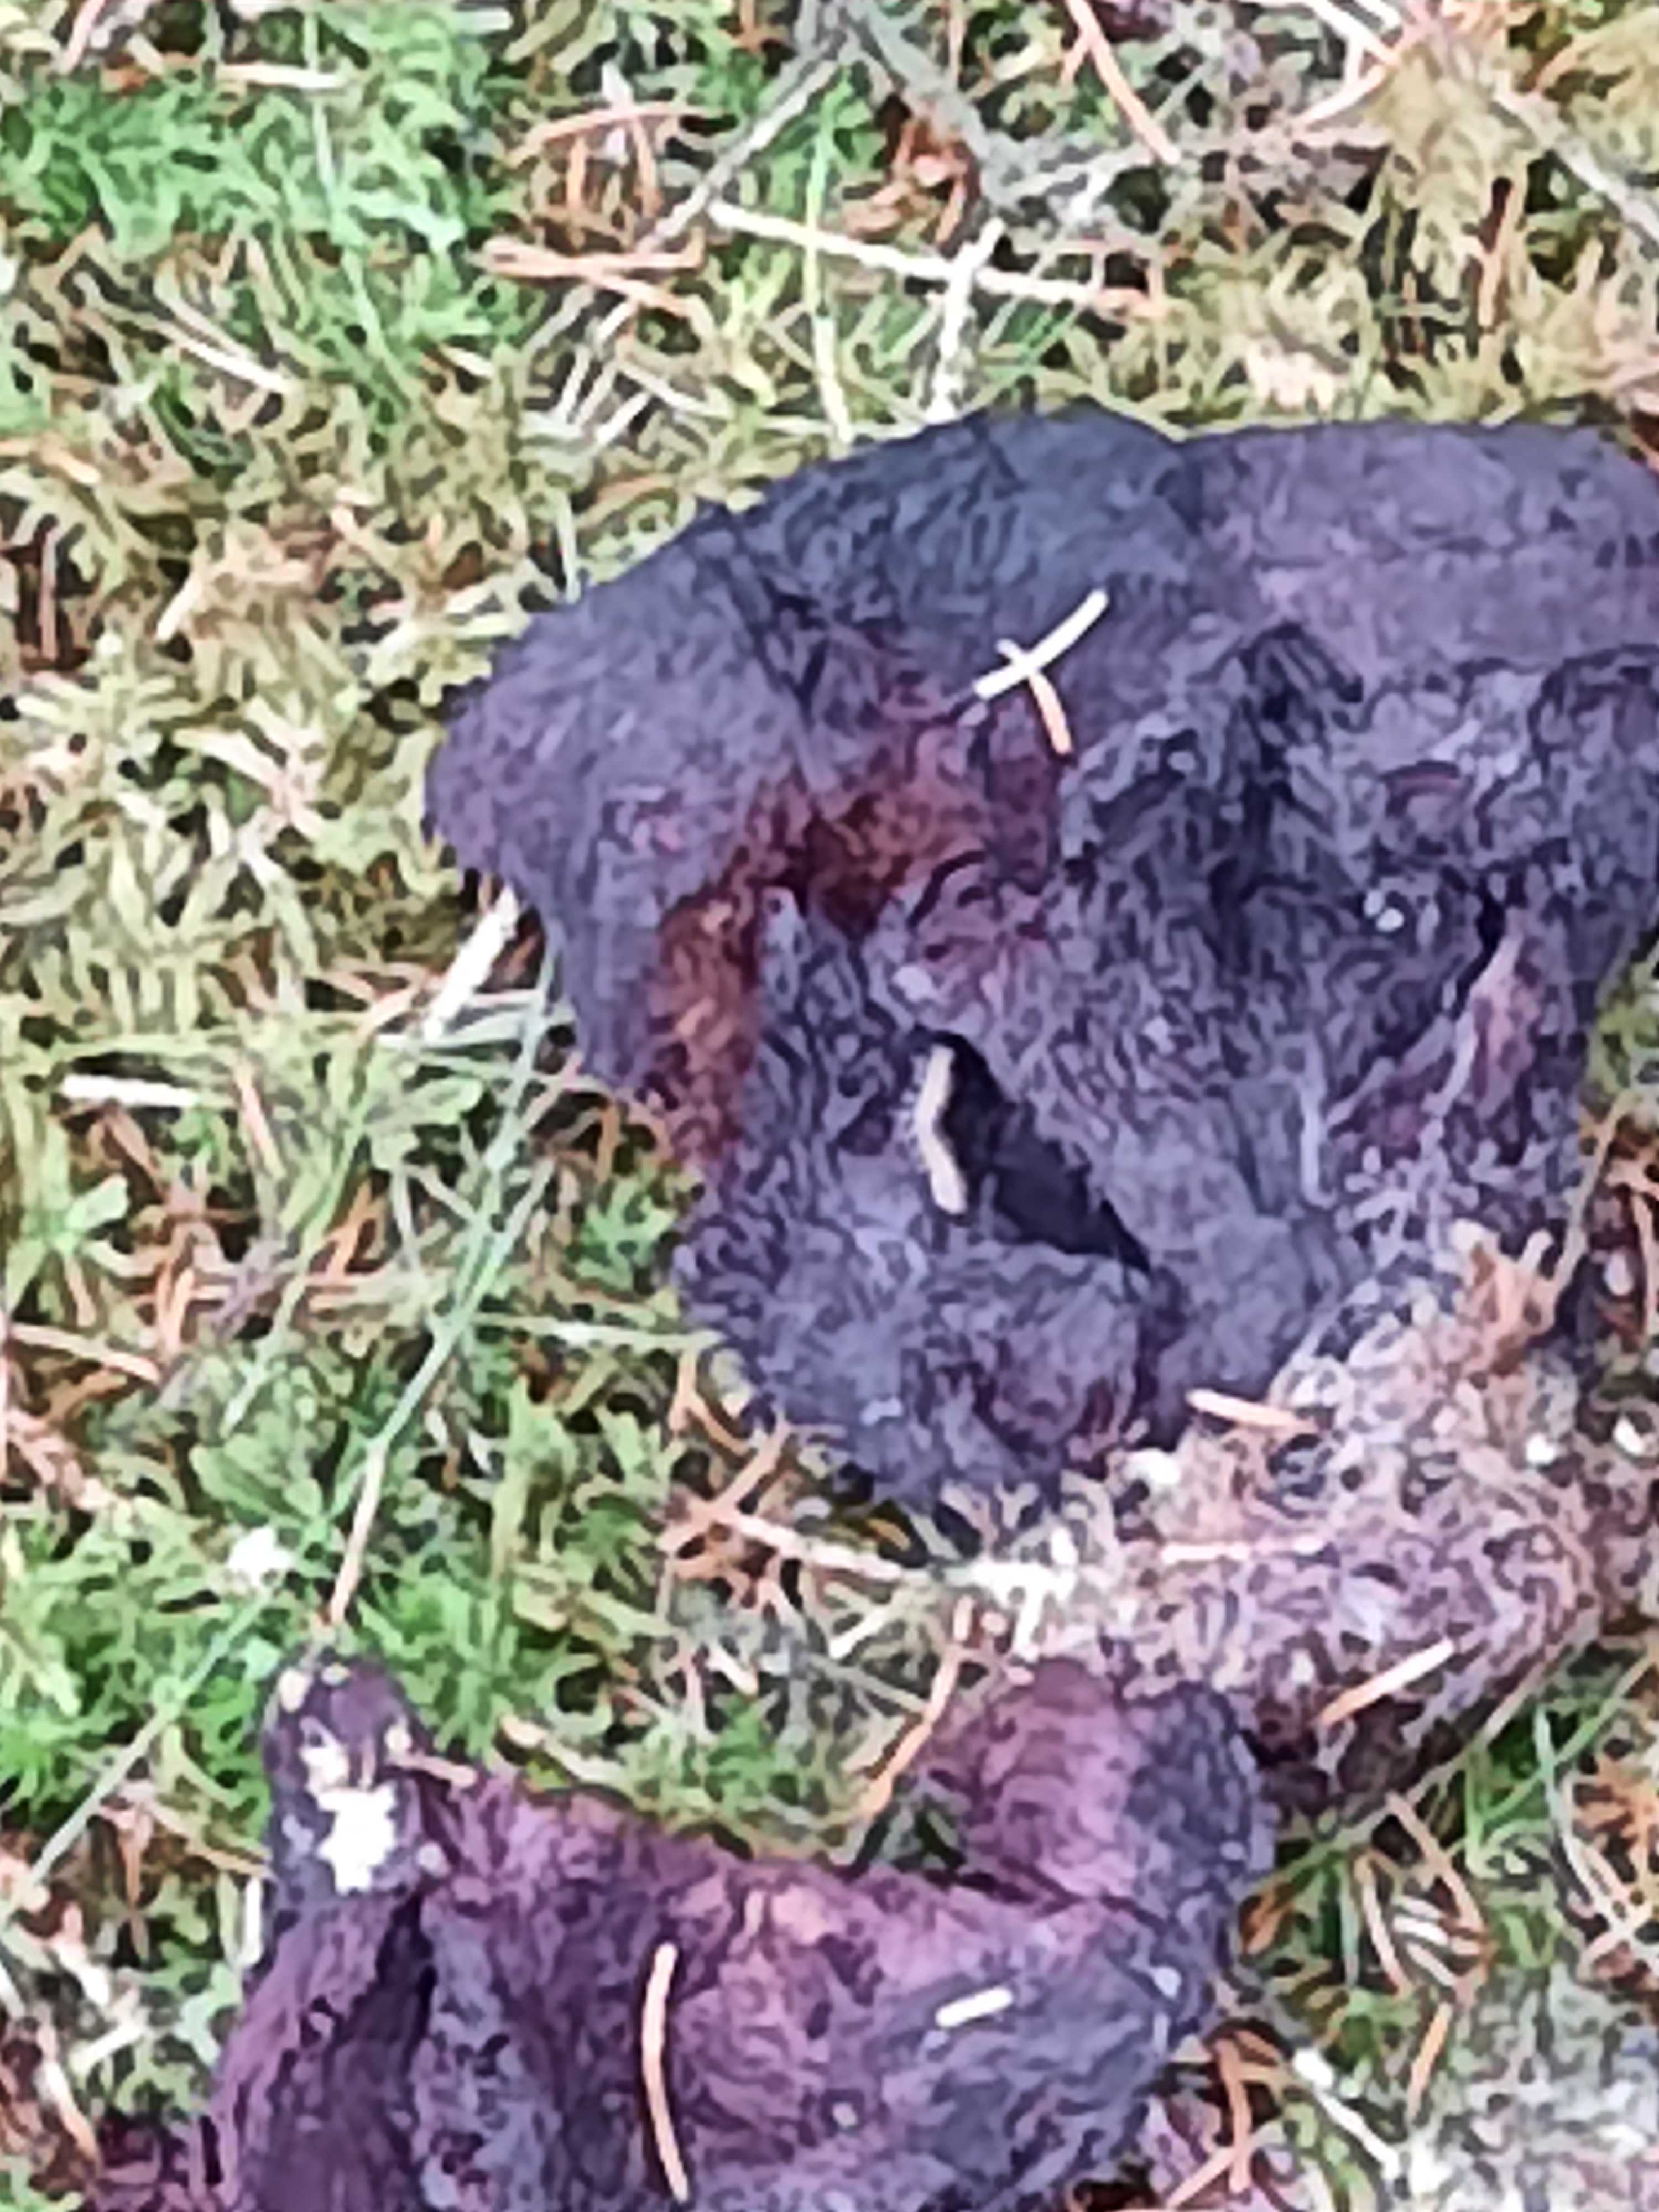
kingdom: Fungi
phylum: Basidiomycota
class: Agaricomycetes
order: Polyporales
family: Laetiporaceae
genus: Phaeolus
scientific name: Phaeolus schweinitzii
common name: brunporesvamp
